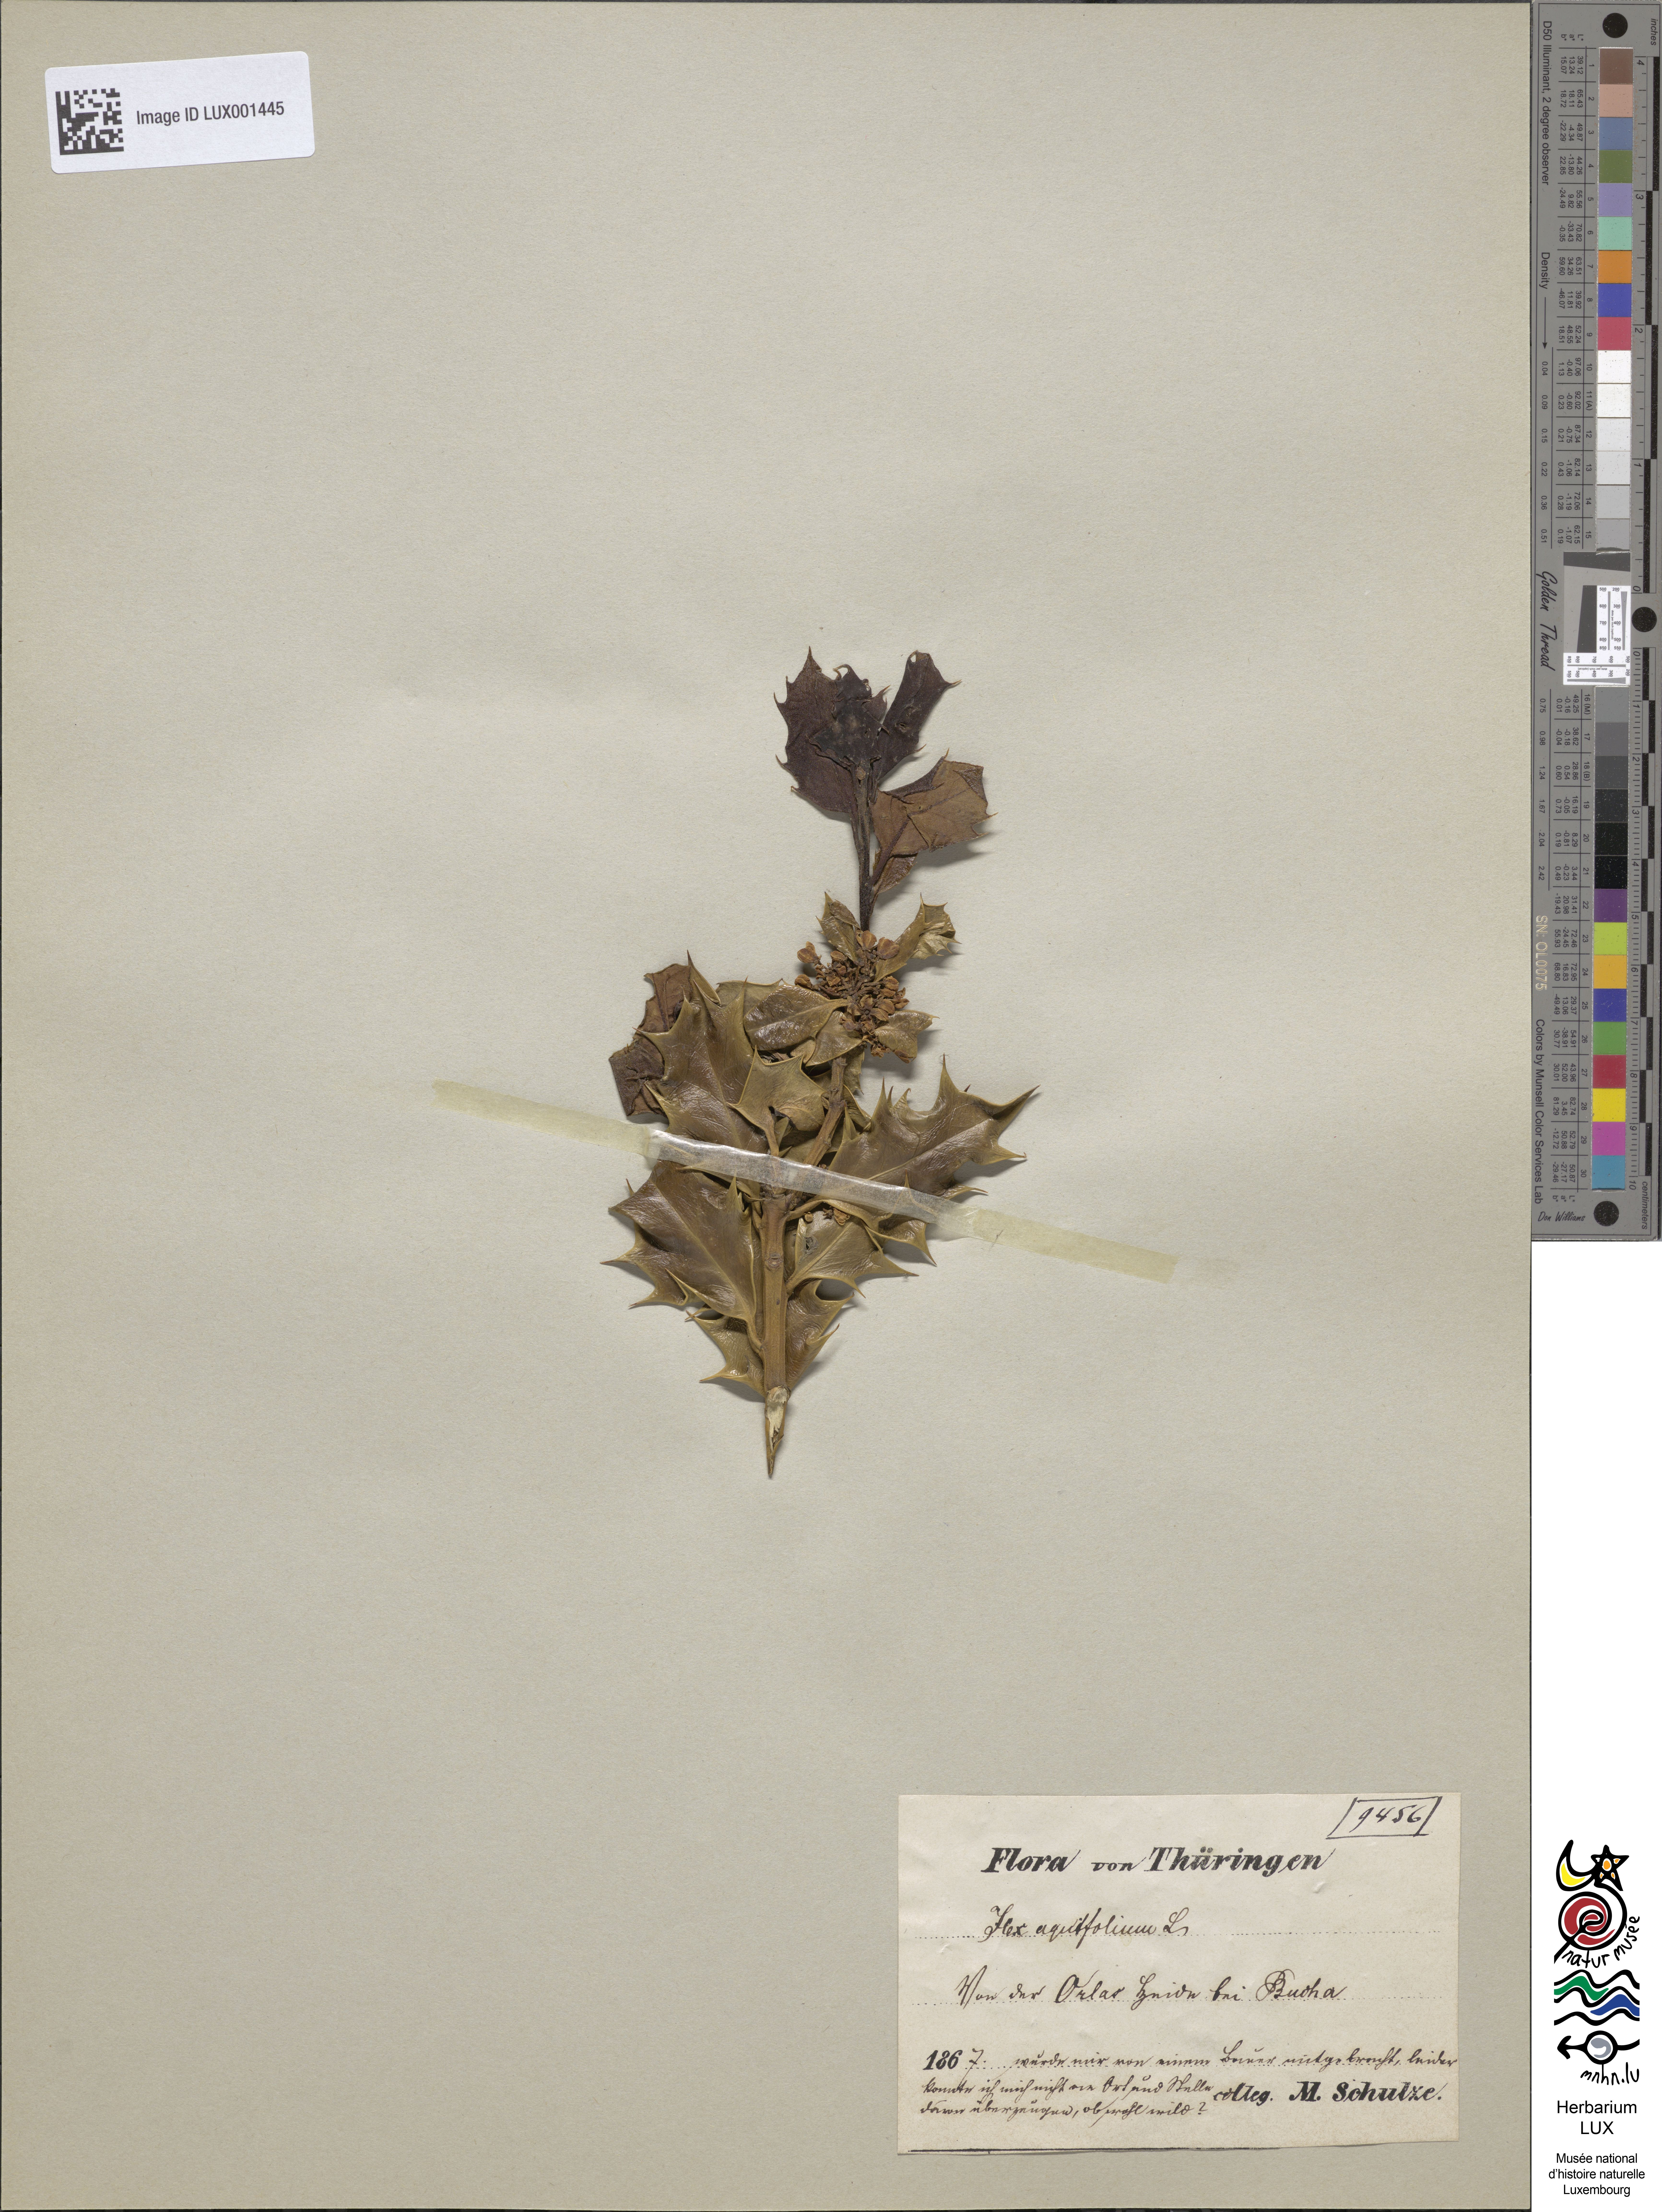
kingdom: Plantae
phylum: Tracheophyta
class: Magnoliopsida
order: Aquifoliales
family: Aquifoliaceae
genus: Ilex
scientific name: Ilex aquifolium
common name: English holly
